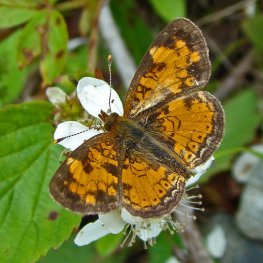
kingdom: Animalia
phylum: Arthropoda
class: Insecta
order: Lepidoptera
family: Nymphalidae
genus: Phyciodes
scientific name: Phyciodes tharos
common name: Northern Crescent
